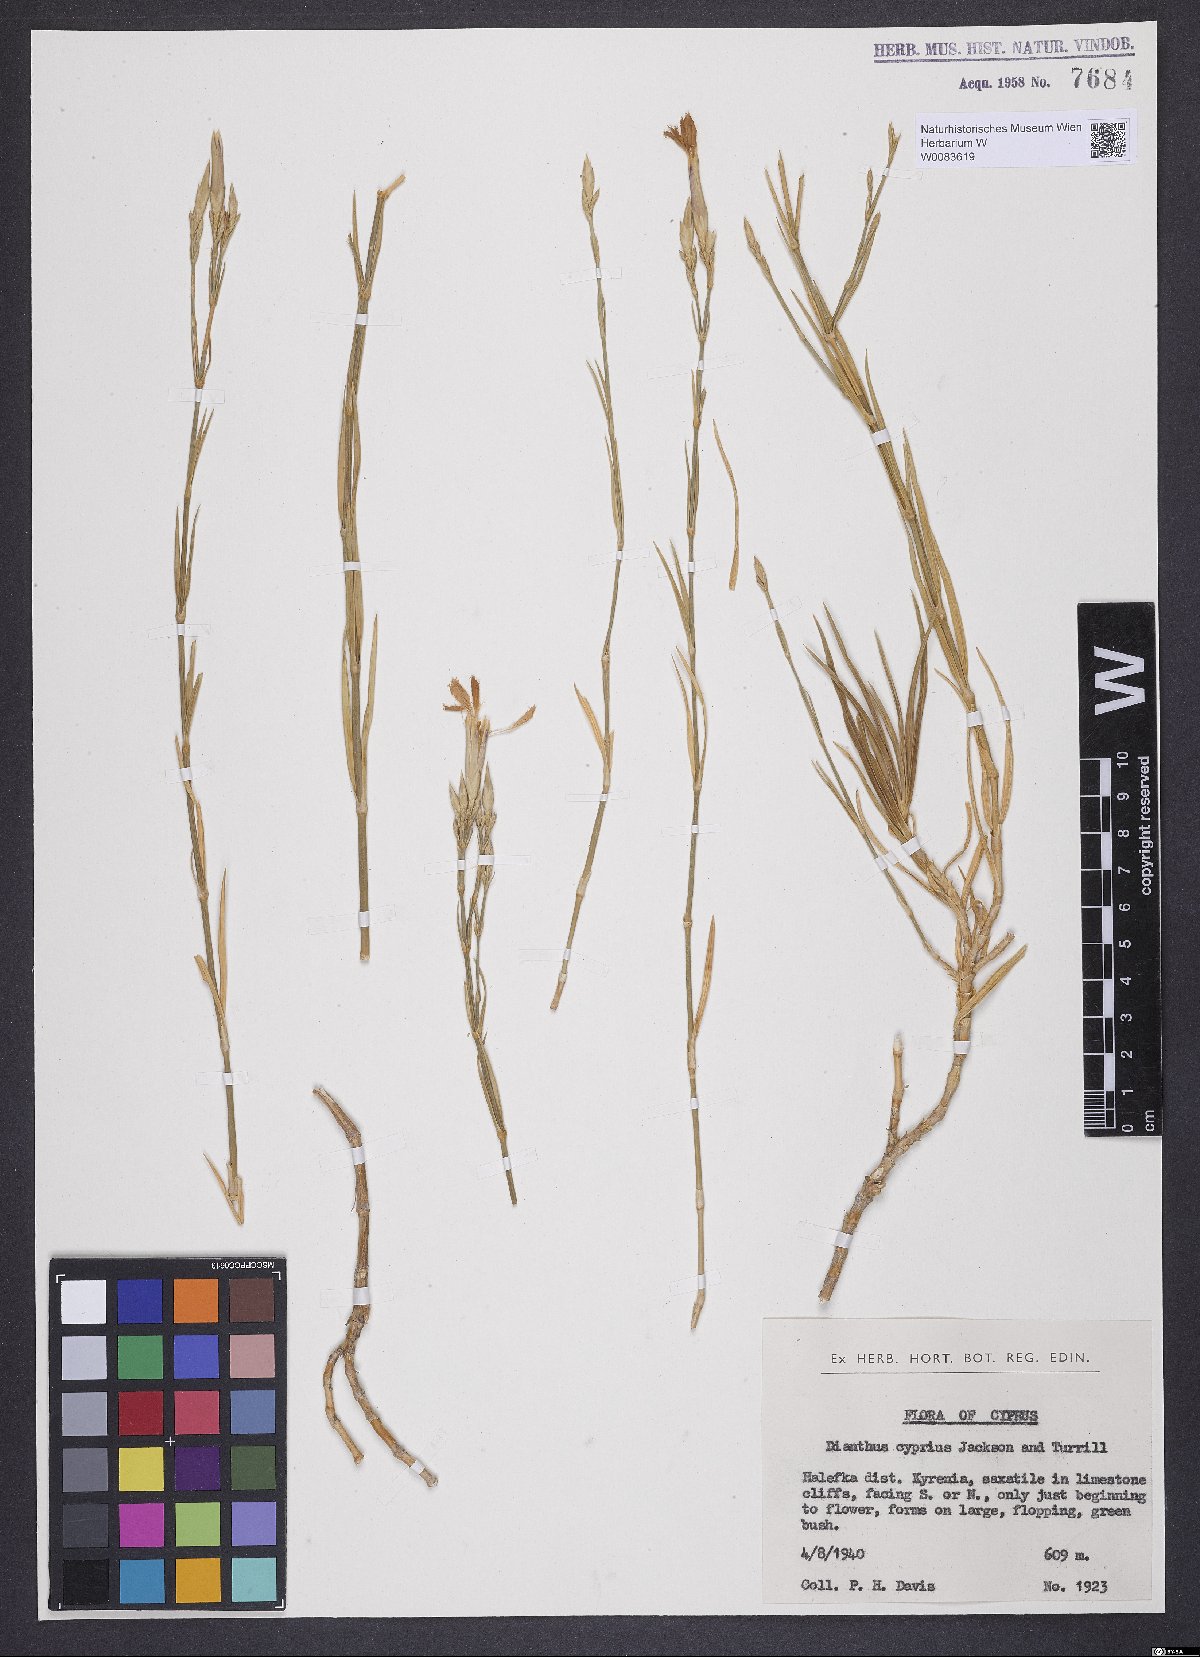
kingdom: Plantae
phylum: Tracheophyta
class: Magnoliopsida
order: Caryophyllales
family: Caryophyllaceae
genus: Dianthus
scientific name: Dianthus cyprius
